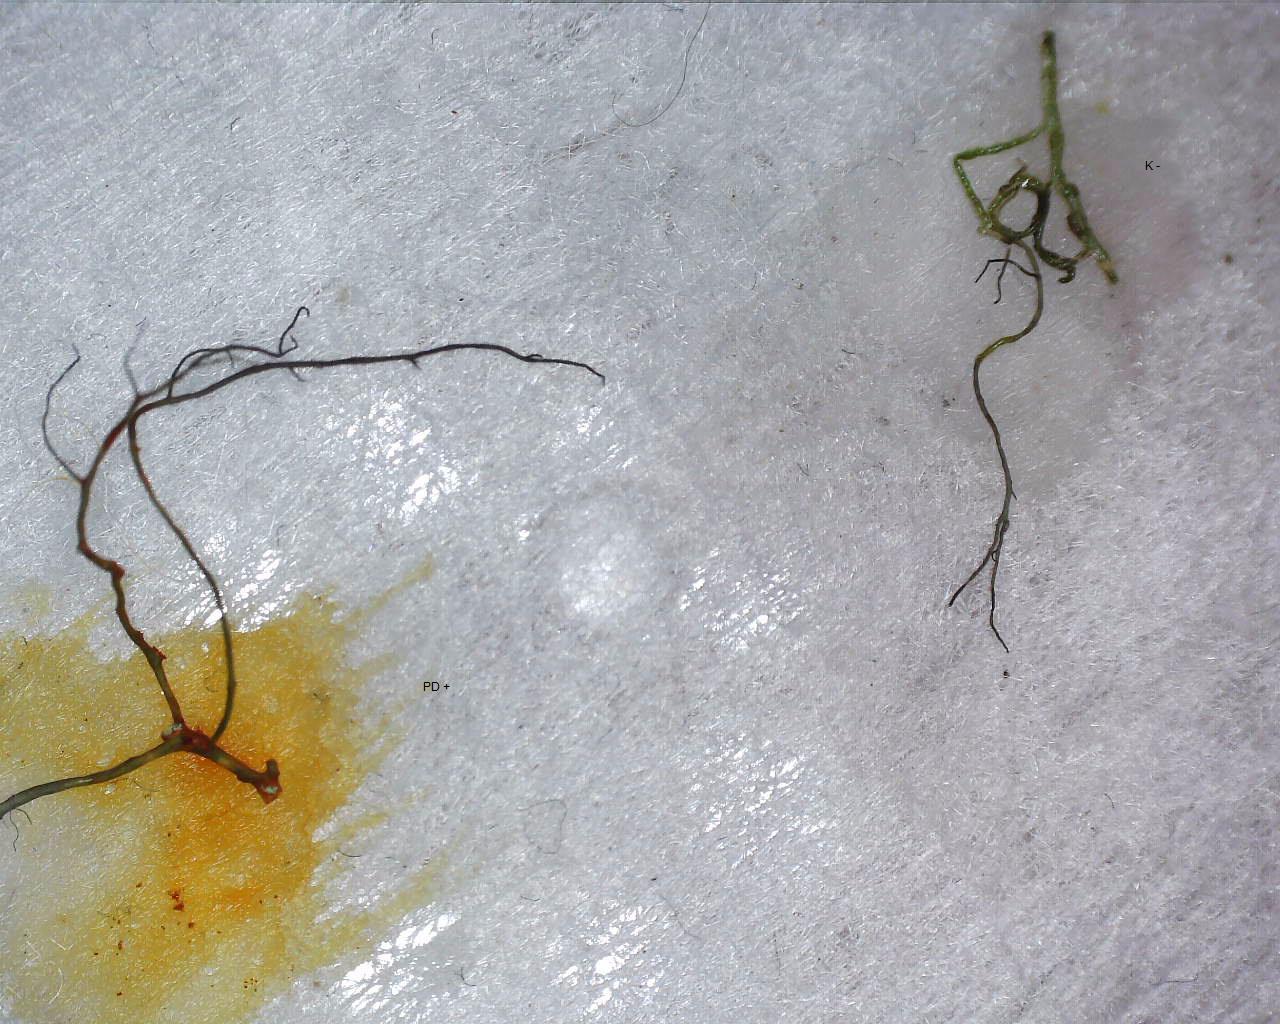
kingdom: Fungi
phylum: Ascomycota
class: Lecanoromycetes
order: Lecanorales
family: Parmeliaceae
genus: Bryoria
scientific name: Bryoria fuscescens
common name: almindelig mankelav
